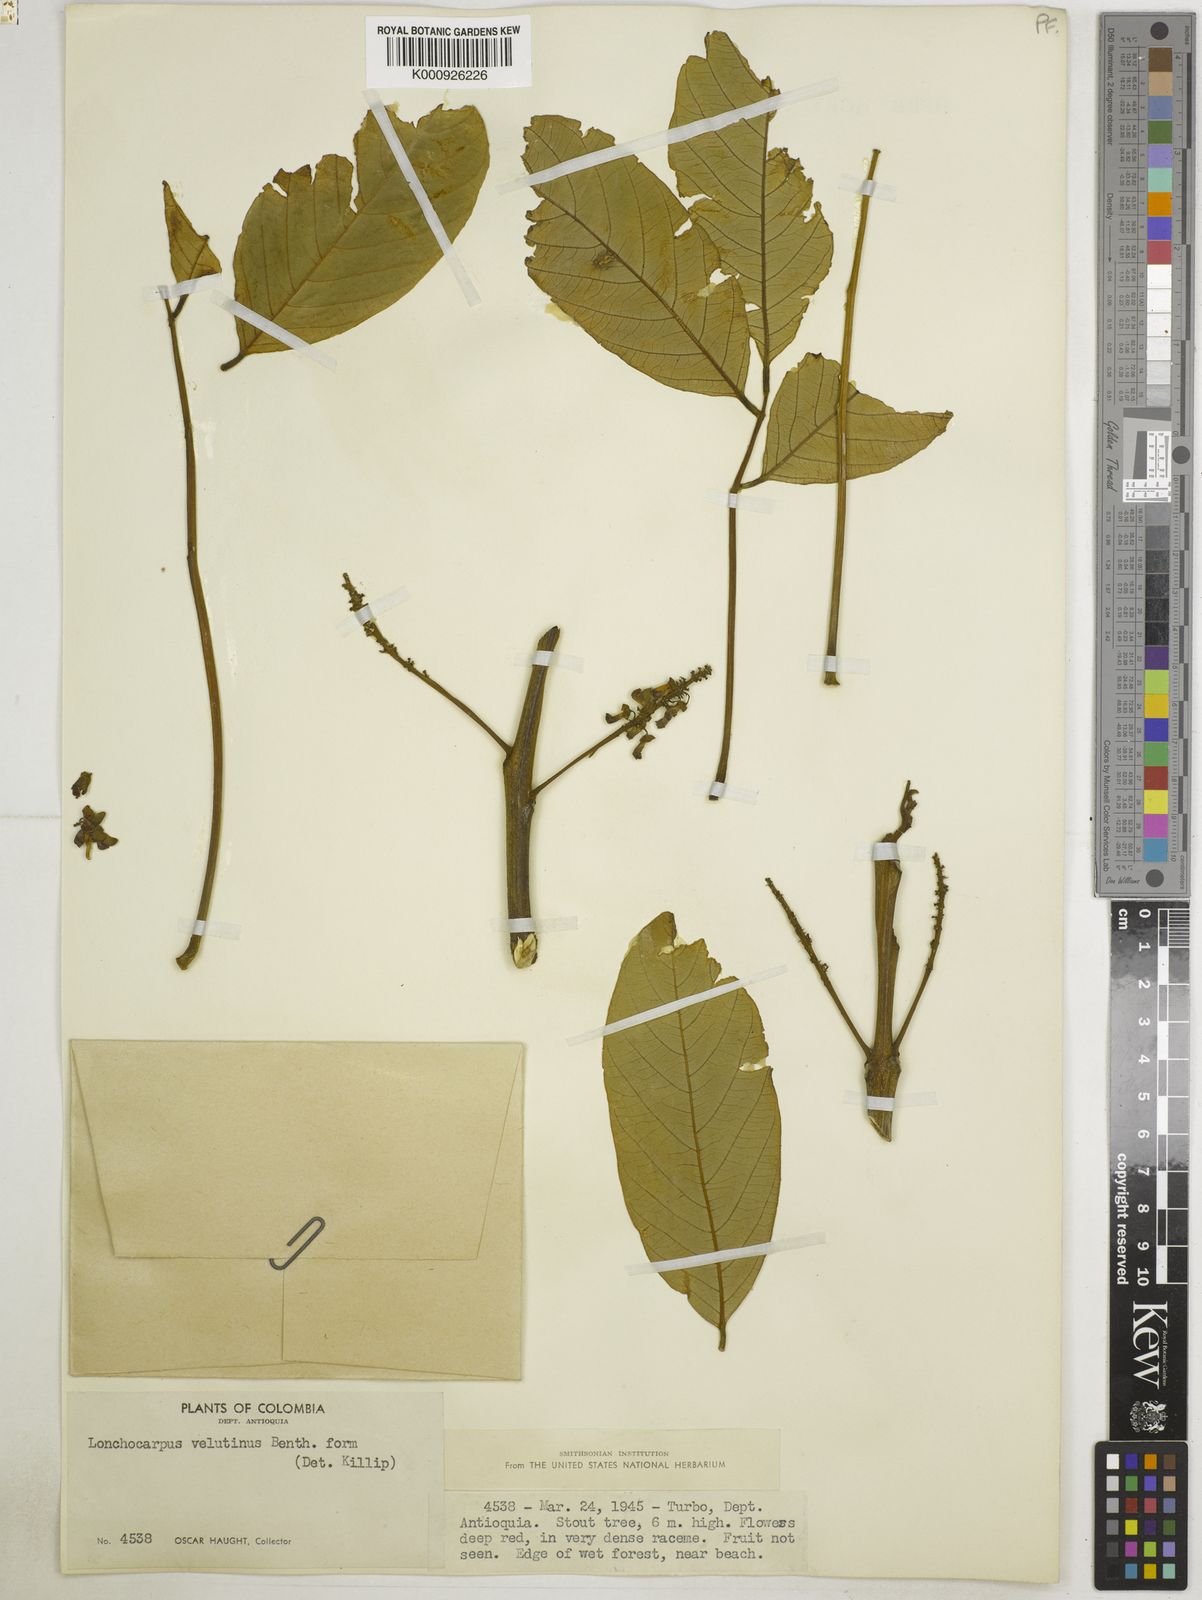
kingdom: Plantae
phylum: Tracheophyta
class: Magnoliopsida
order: Fabales
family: Fabaceae
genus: Lonchocarpus
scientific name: Lonchocarpus velutinus
